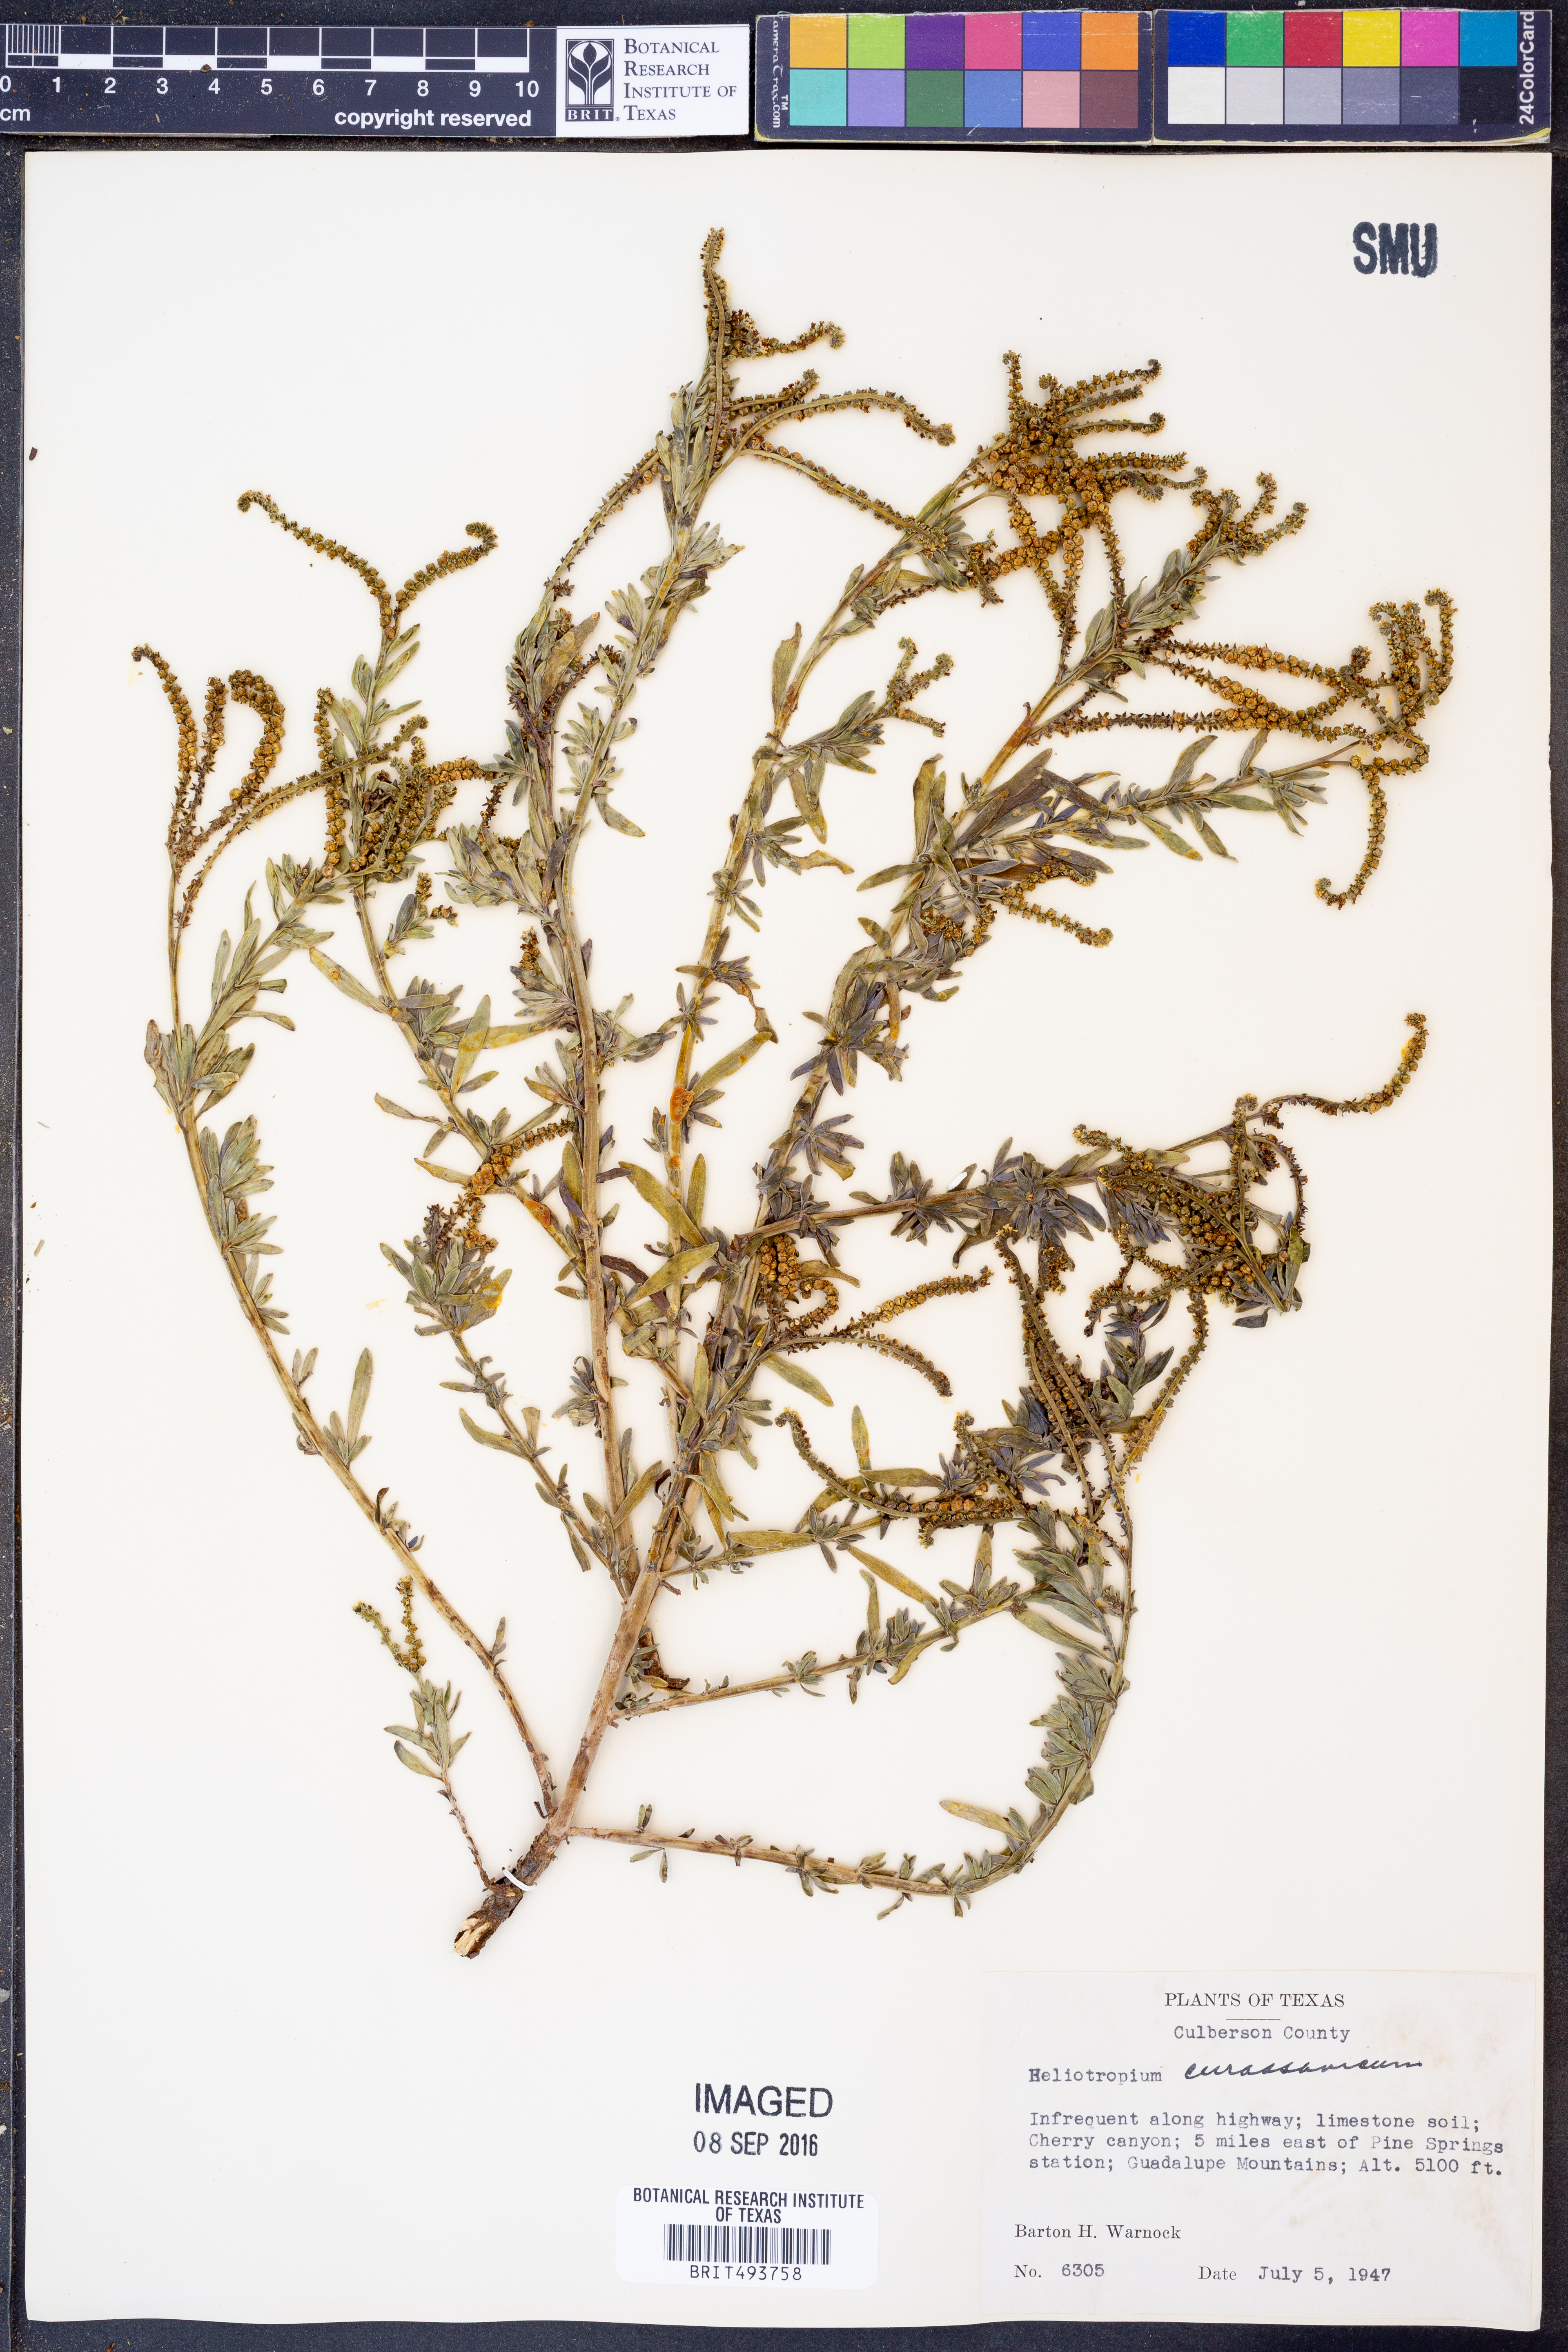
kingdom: Plantae
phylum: Tracheophyta
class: Magnoliopsida
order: Boraginales
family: Heliotropiaceae
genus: Heliotropium
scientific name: Heliotropium curassavicum
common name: Seaside heliotrope
